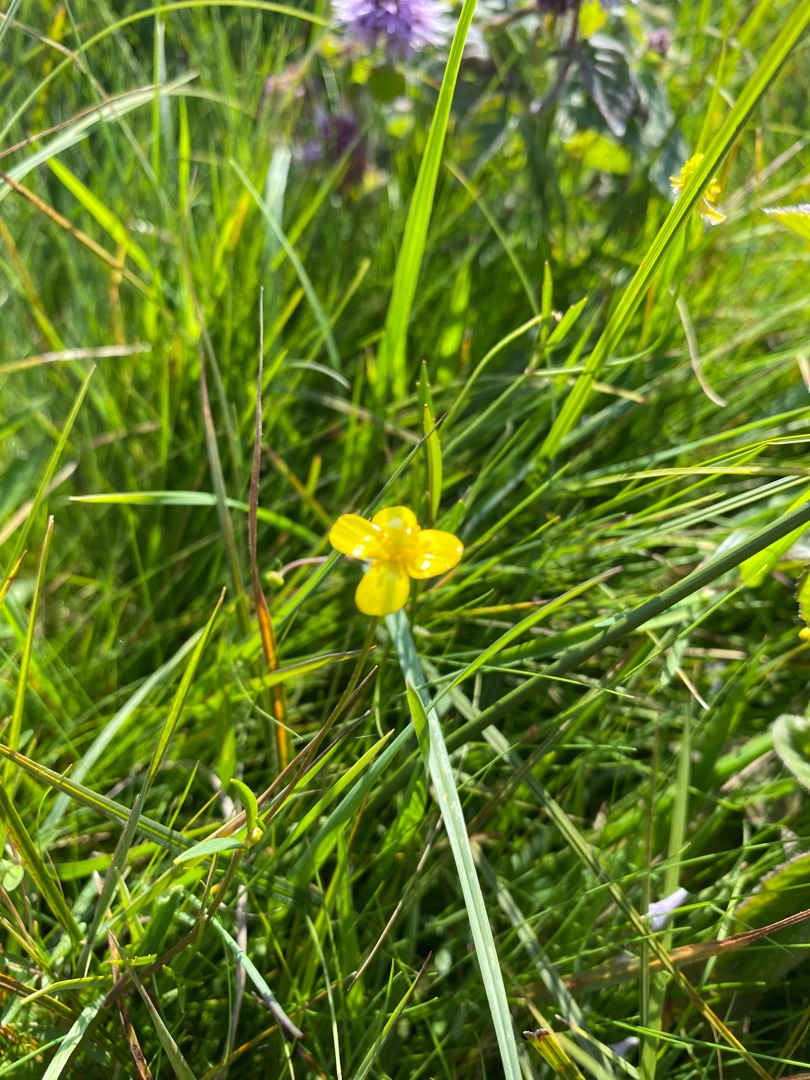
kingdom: Plantae
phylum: Tracheophyta
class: Magnoliopsida
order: Ranunculales
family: Ranunculaceae
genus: Ranunculus
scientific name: Ranunculus
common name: Ranunkelslægten
